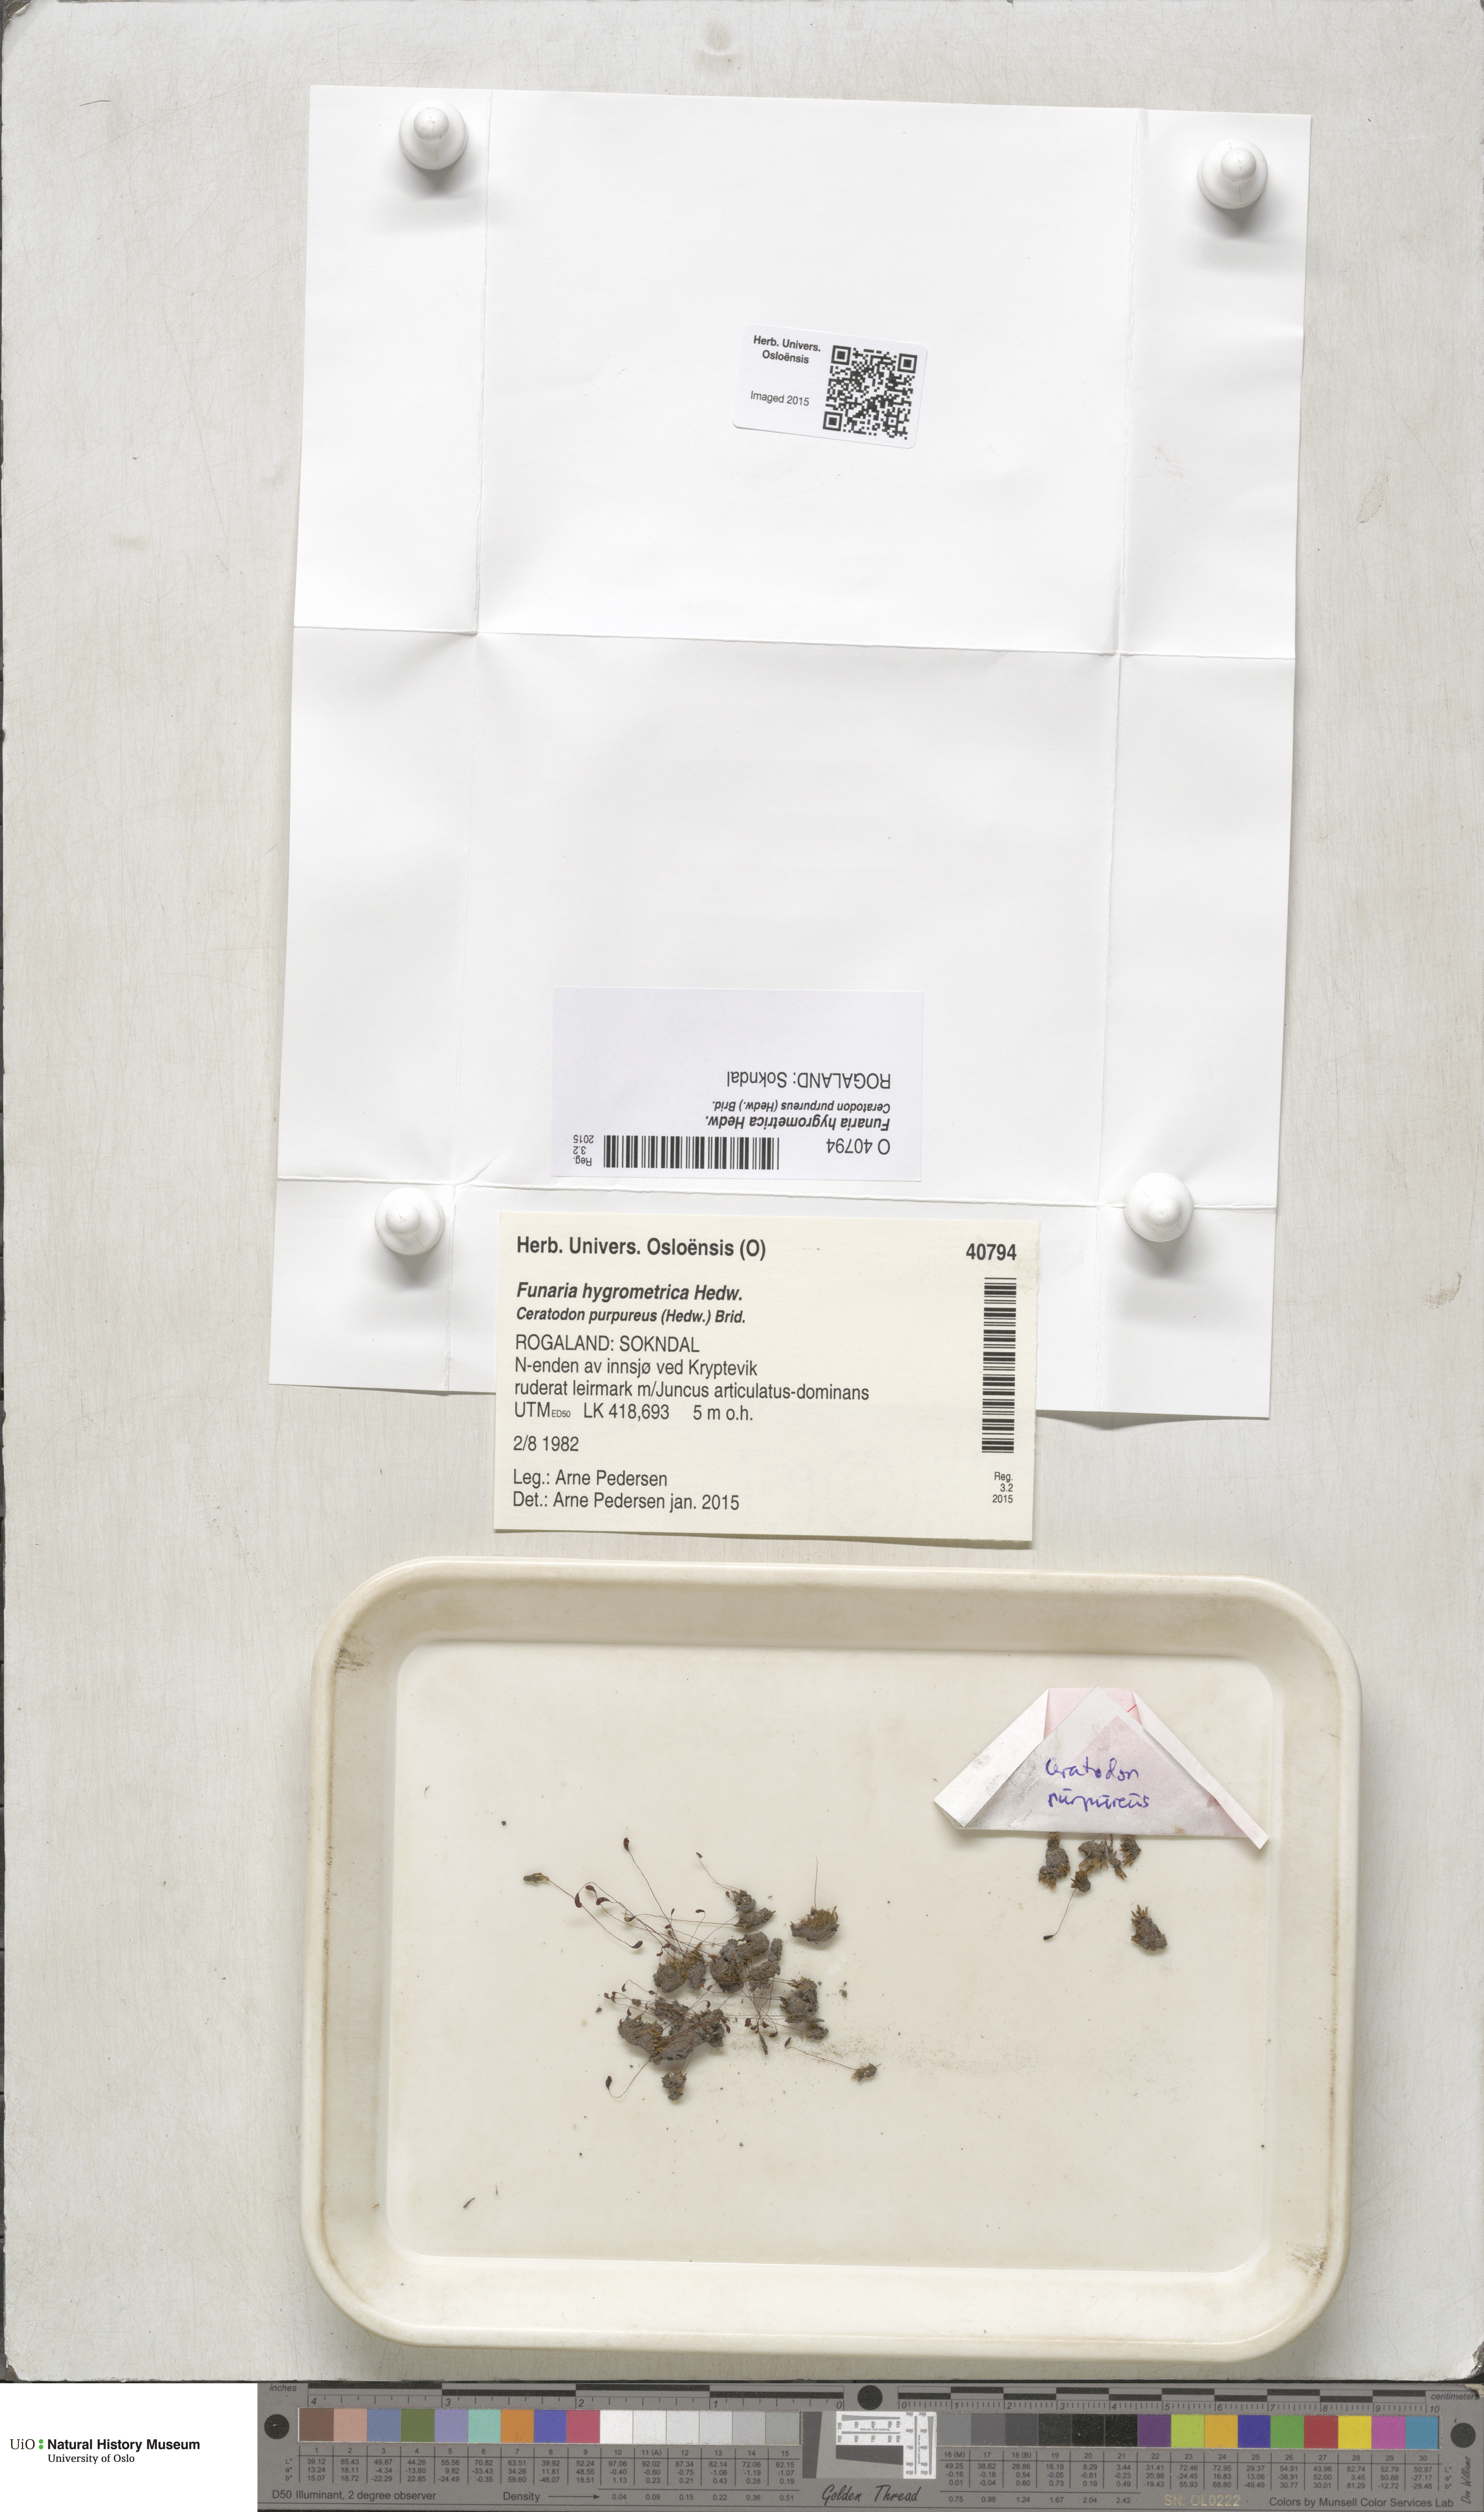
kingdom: Plantae
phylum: Bryophyta
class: Bryopsida
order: Funariales
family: Funariaceae
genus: Funaria
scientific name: Funaria hygrometrica
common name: Common cord moss
